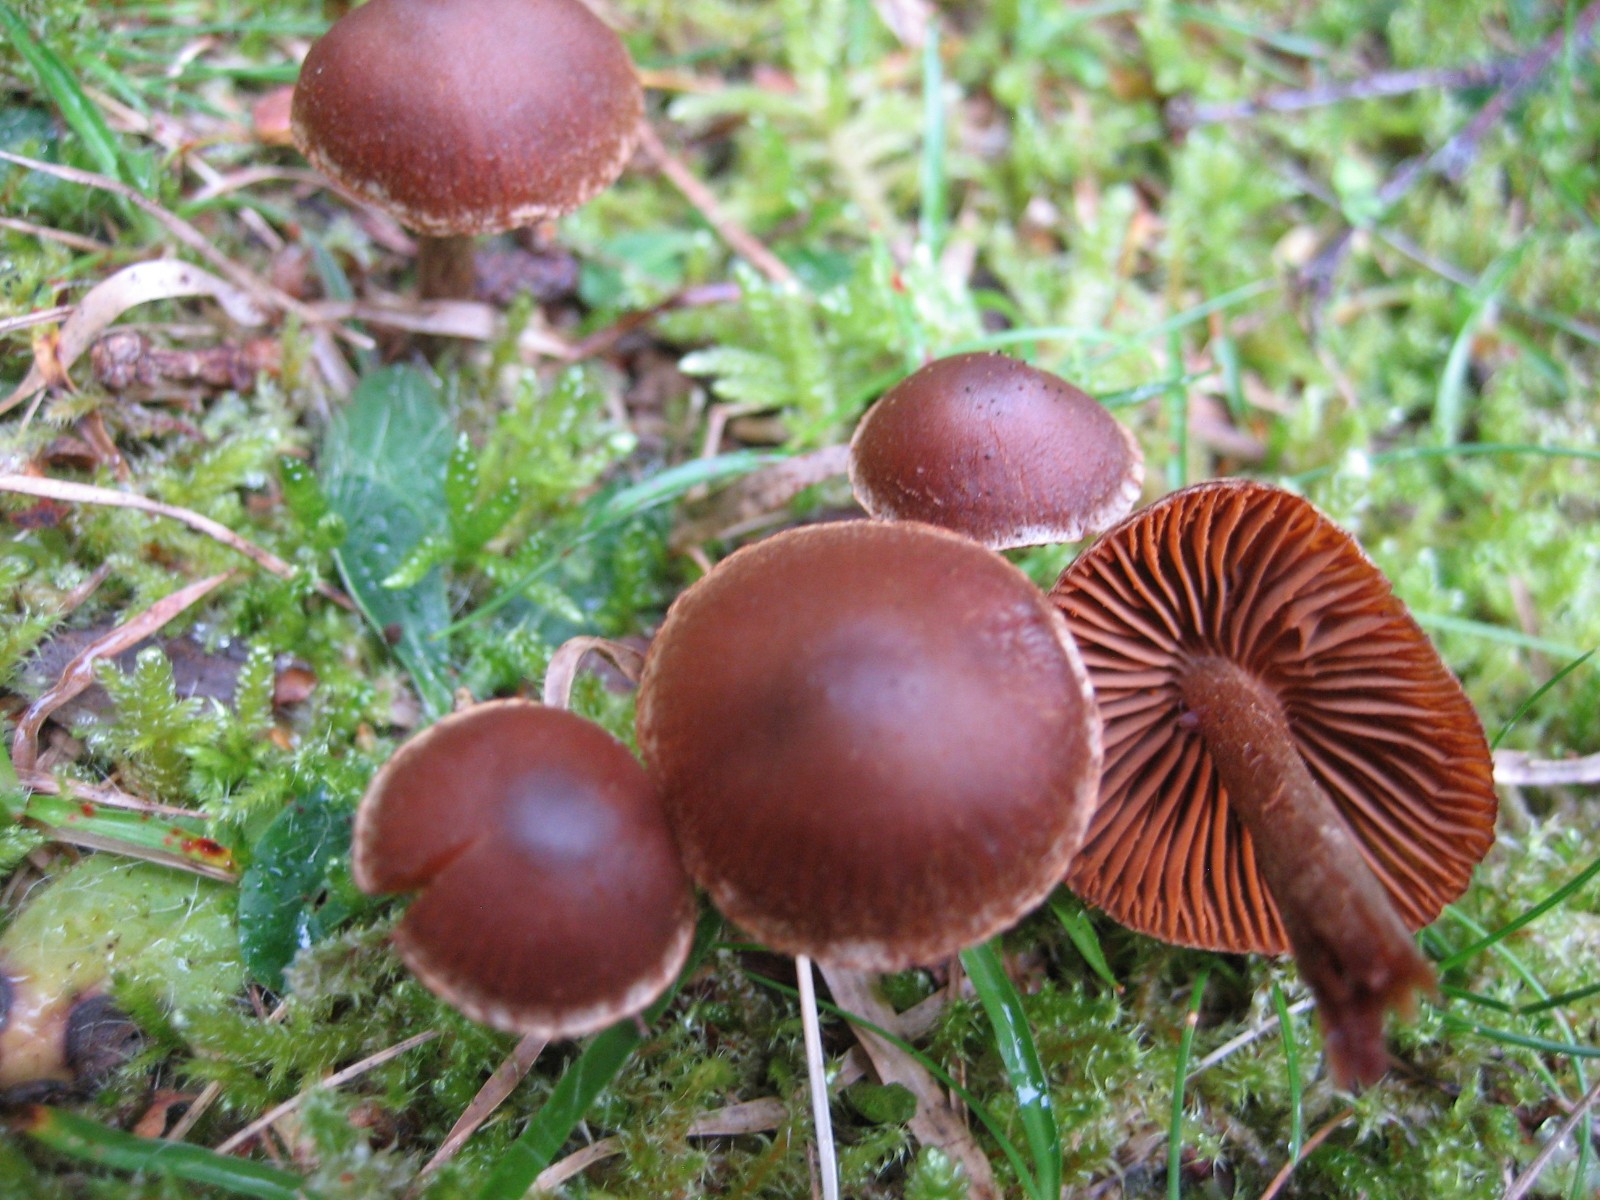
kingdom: Fungi
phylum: Basidiomycota
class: Agaricomycetes
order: Agaricales
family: Cortinariaceae
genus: Cortinarius
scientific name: Cortinarius
